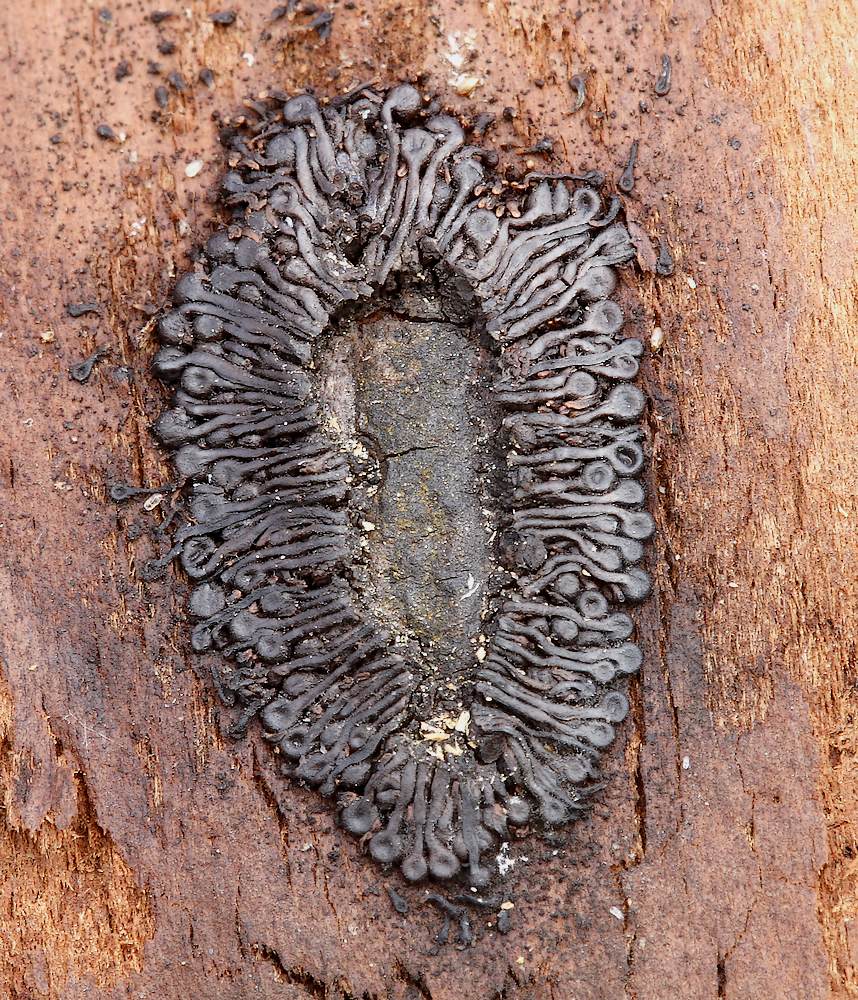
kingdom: Fungi
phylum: Ascomycota
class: Sordariomycetes
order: Calosphaeriales
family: Calosphaeriaceae
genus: Calosphaeria
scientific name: Calosphaeria pulchella
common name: smuk slyngkerne
